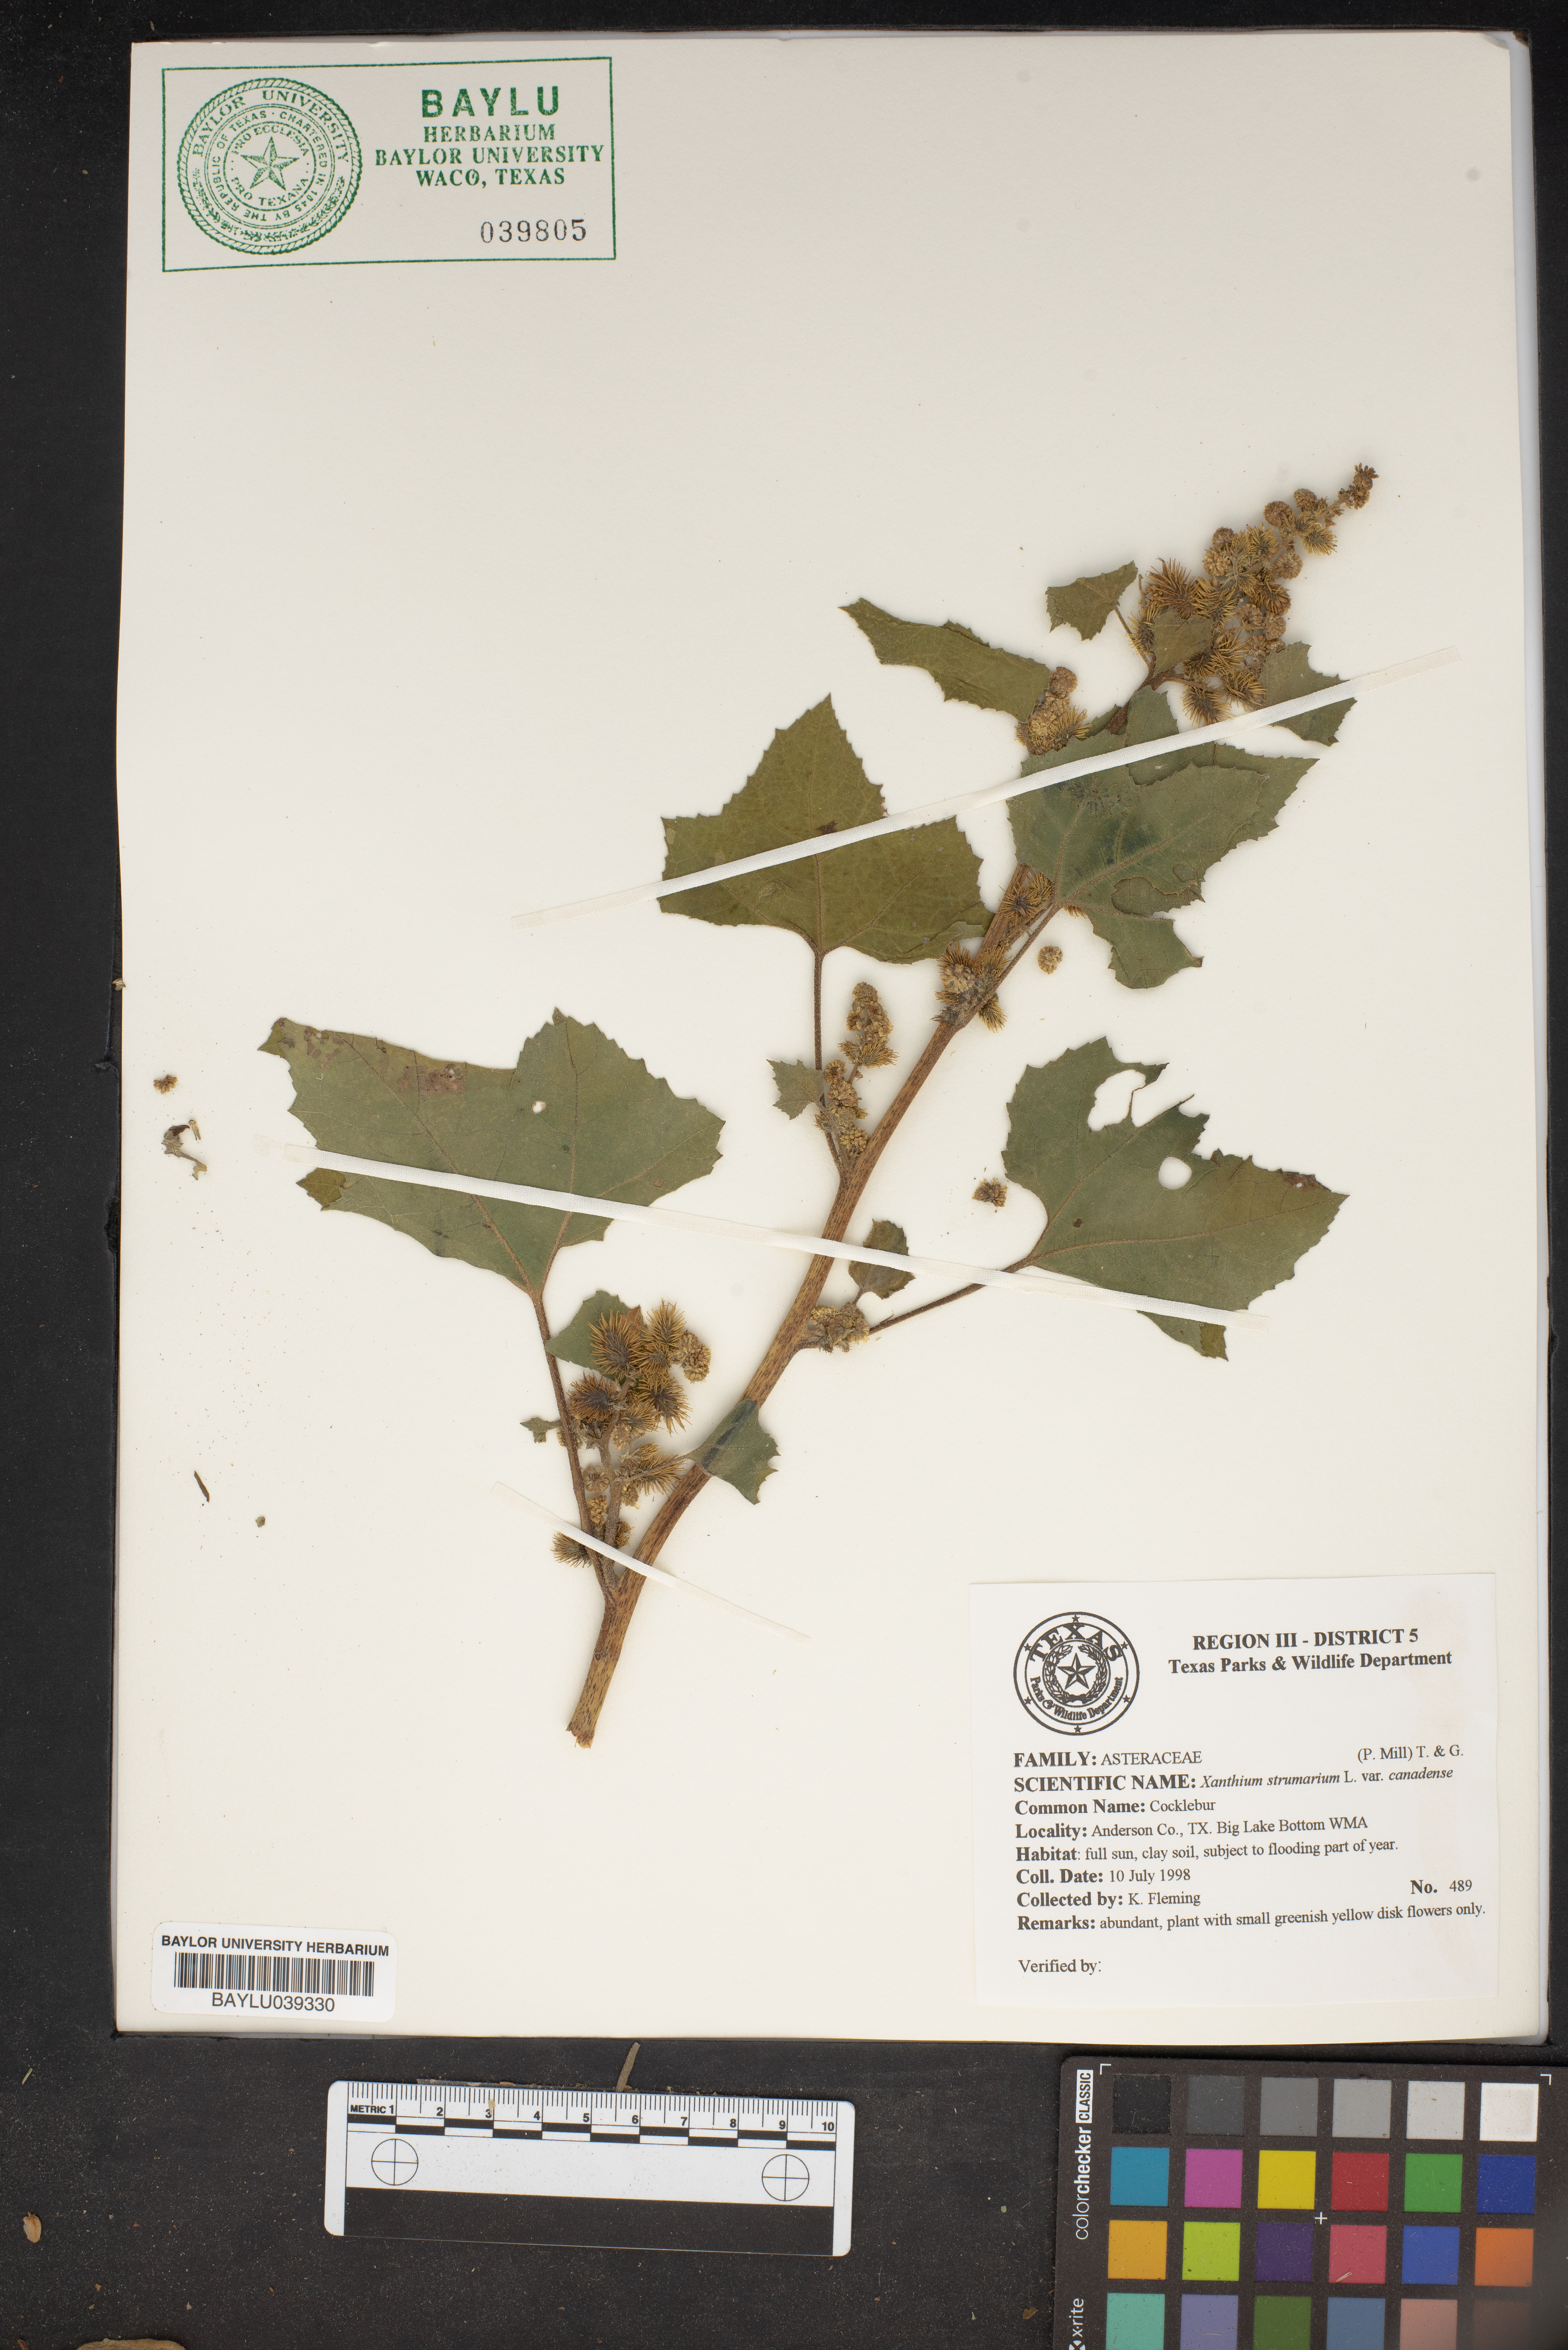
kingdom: Plantae
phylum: Tracheophyta
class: Magnoliopsida
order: Asterales
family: Asteraceae
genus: Xanthium
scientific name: Xanthium strumarium
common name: Rough cocklebur
